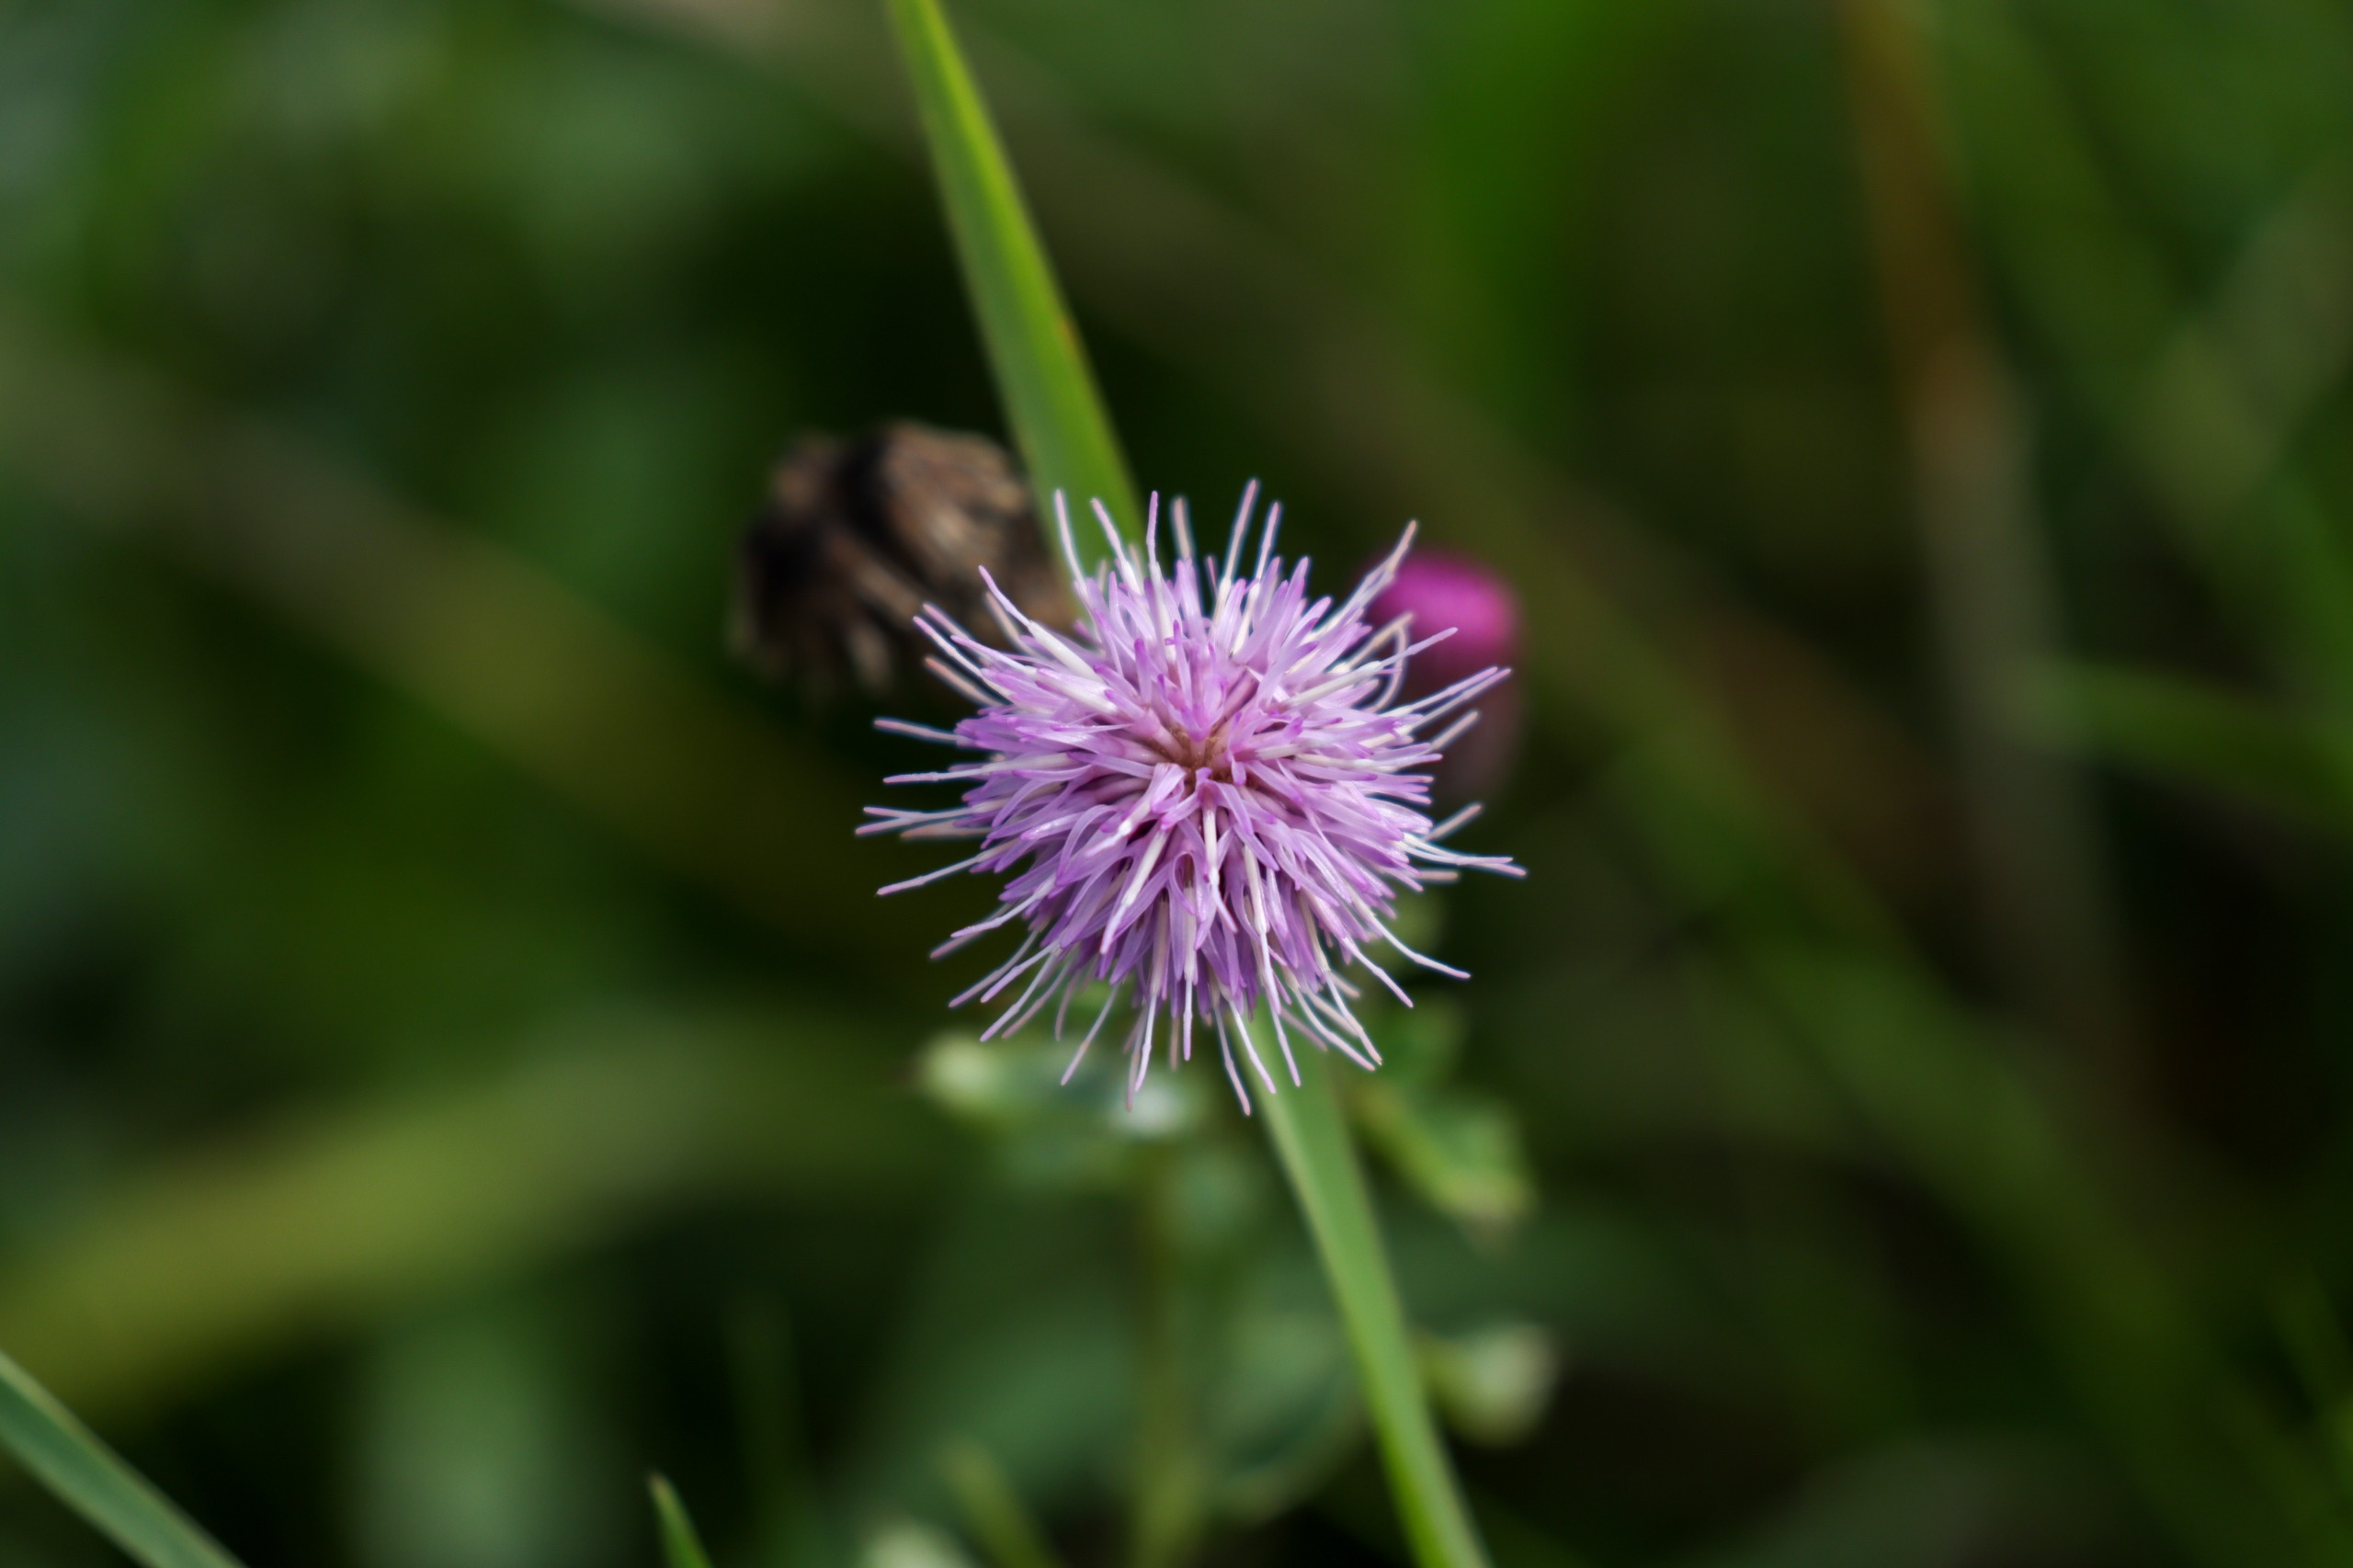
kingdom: Plantae
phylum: Tracheophyta
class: Magnoliopsida
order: Asterales
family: Asteraceae
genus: Cirsium
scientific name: Cirsium arvense
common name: Ager-tidsel
